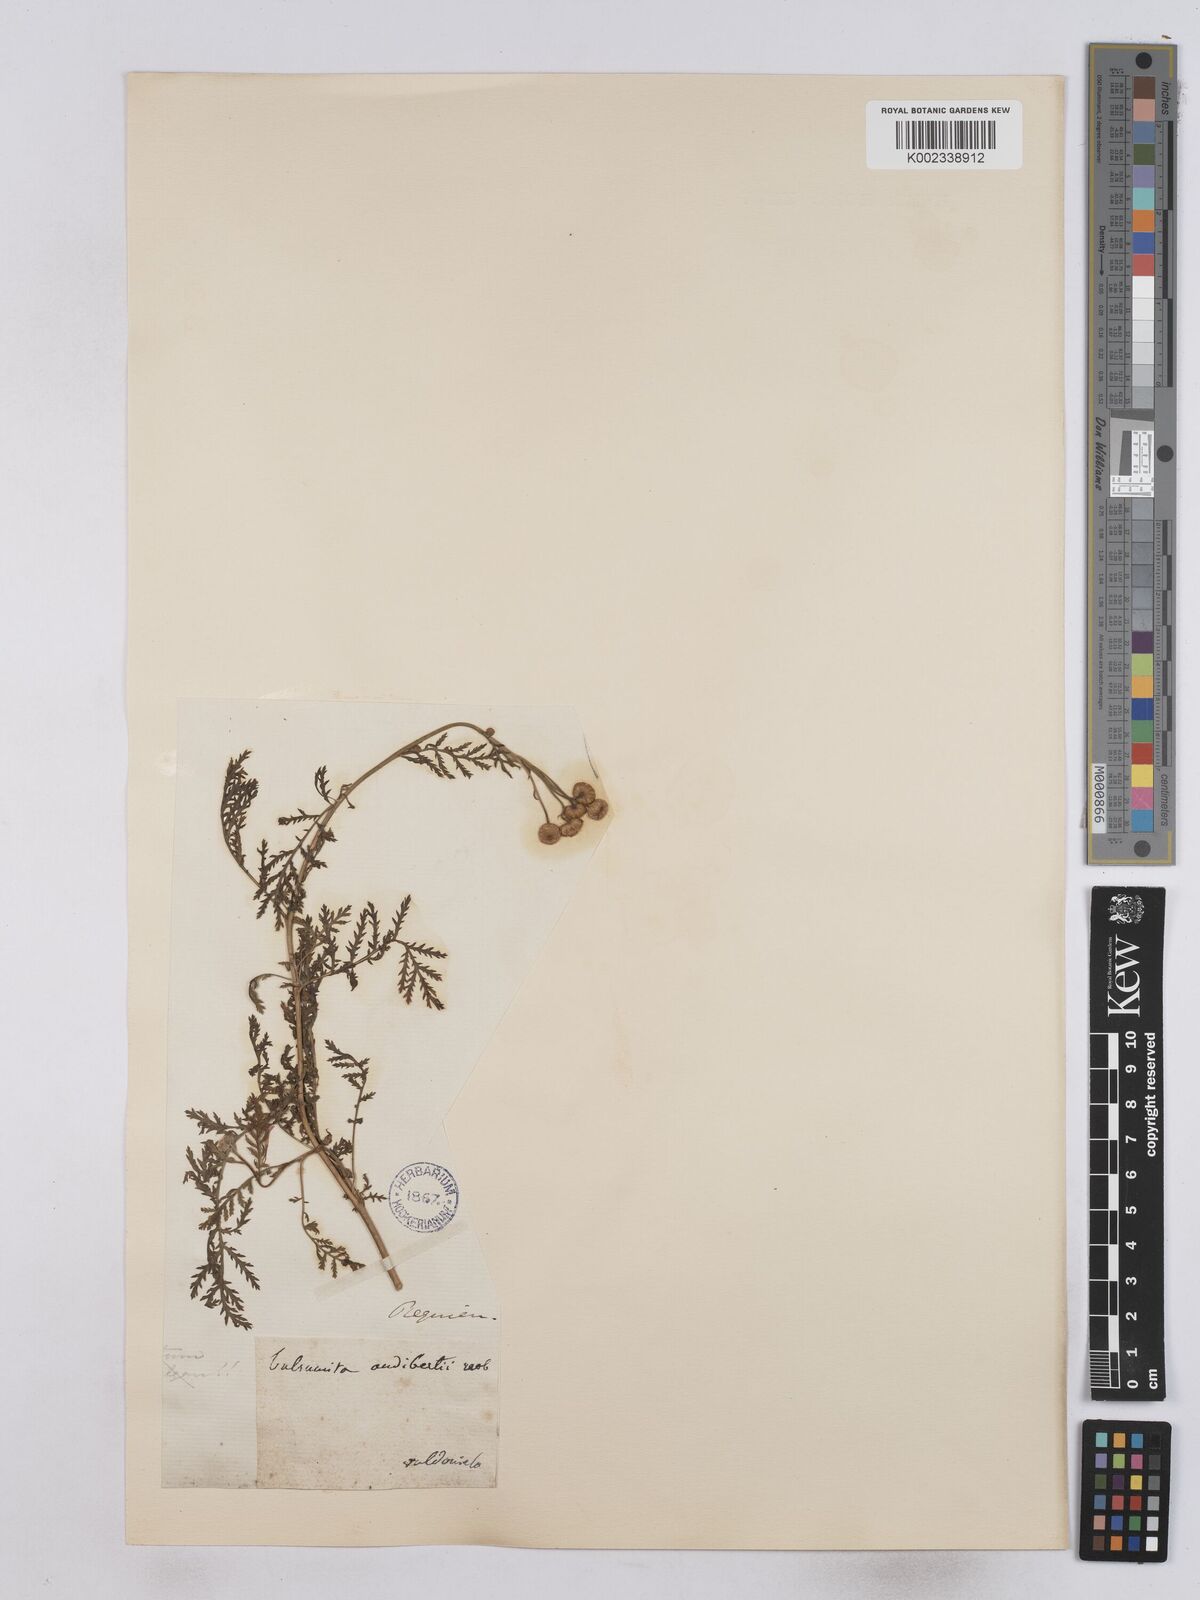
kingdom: Plantae
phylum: Tracheophyta
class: Magnoliopsida
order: Asterales
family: Asteraceae
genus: Tanacetum
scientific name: Tanacetum audibertii
